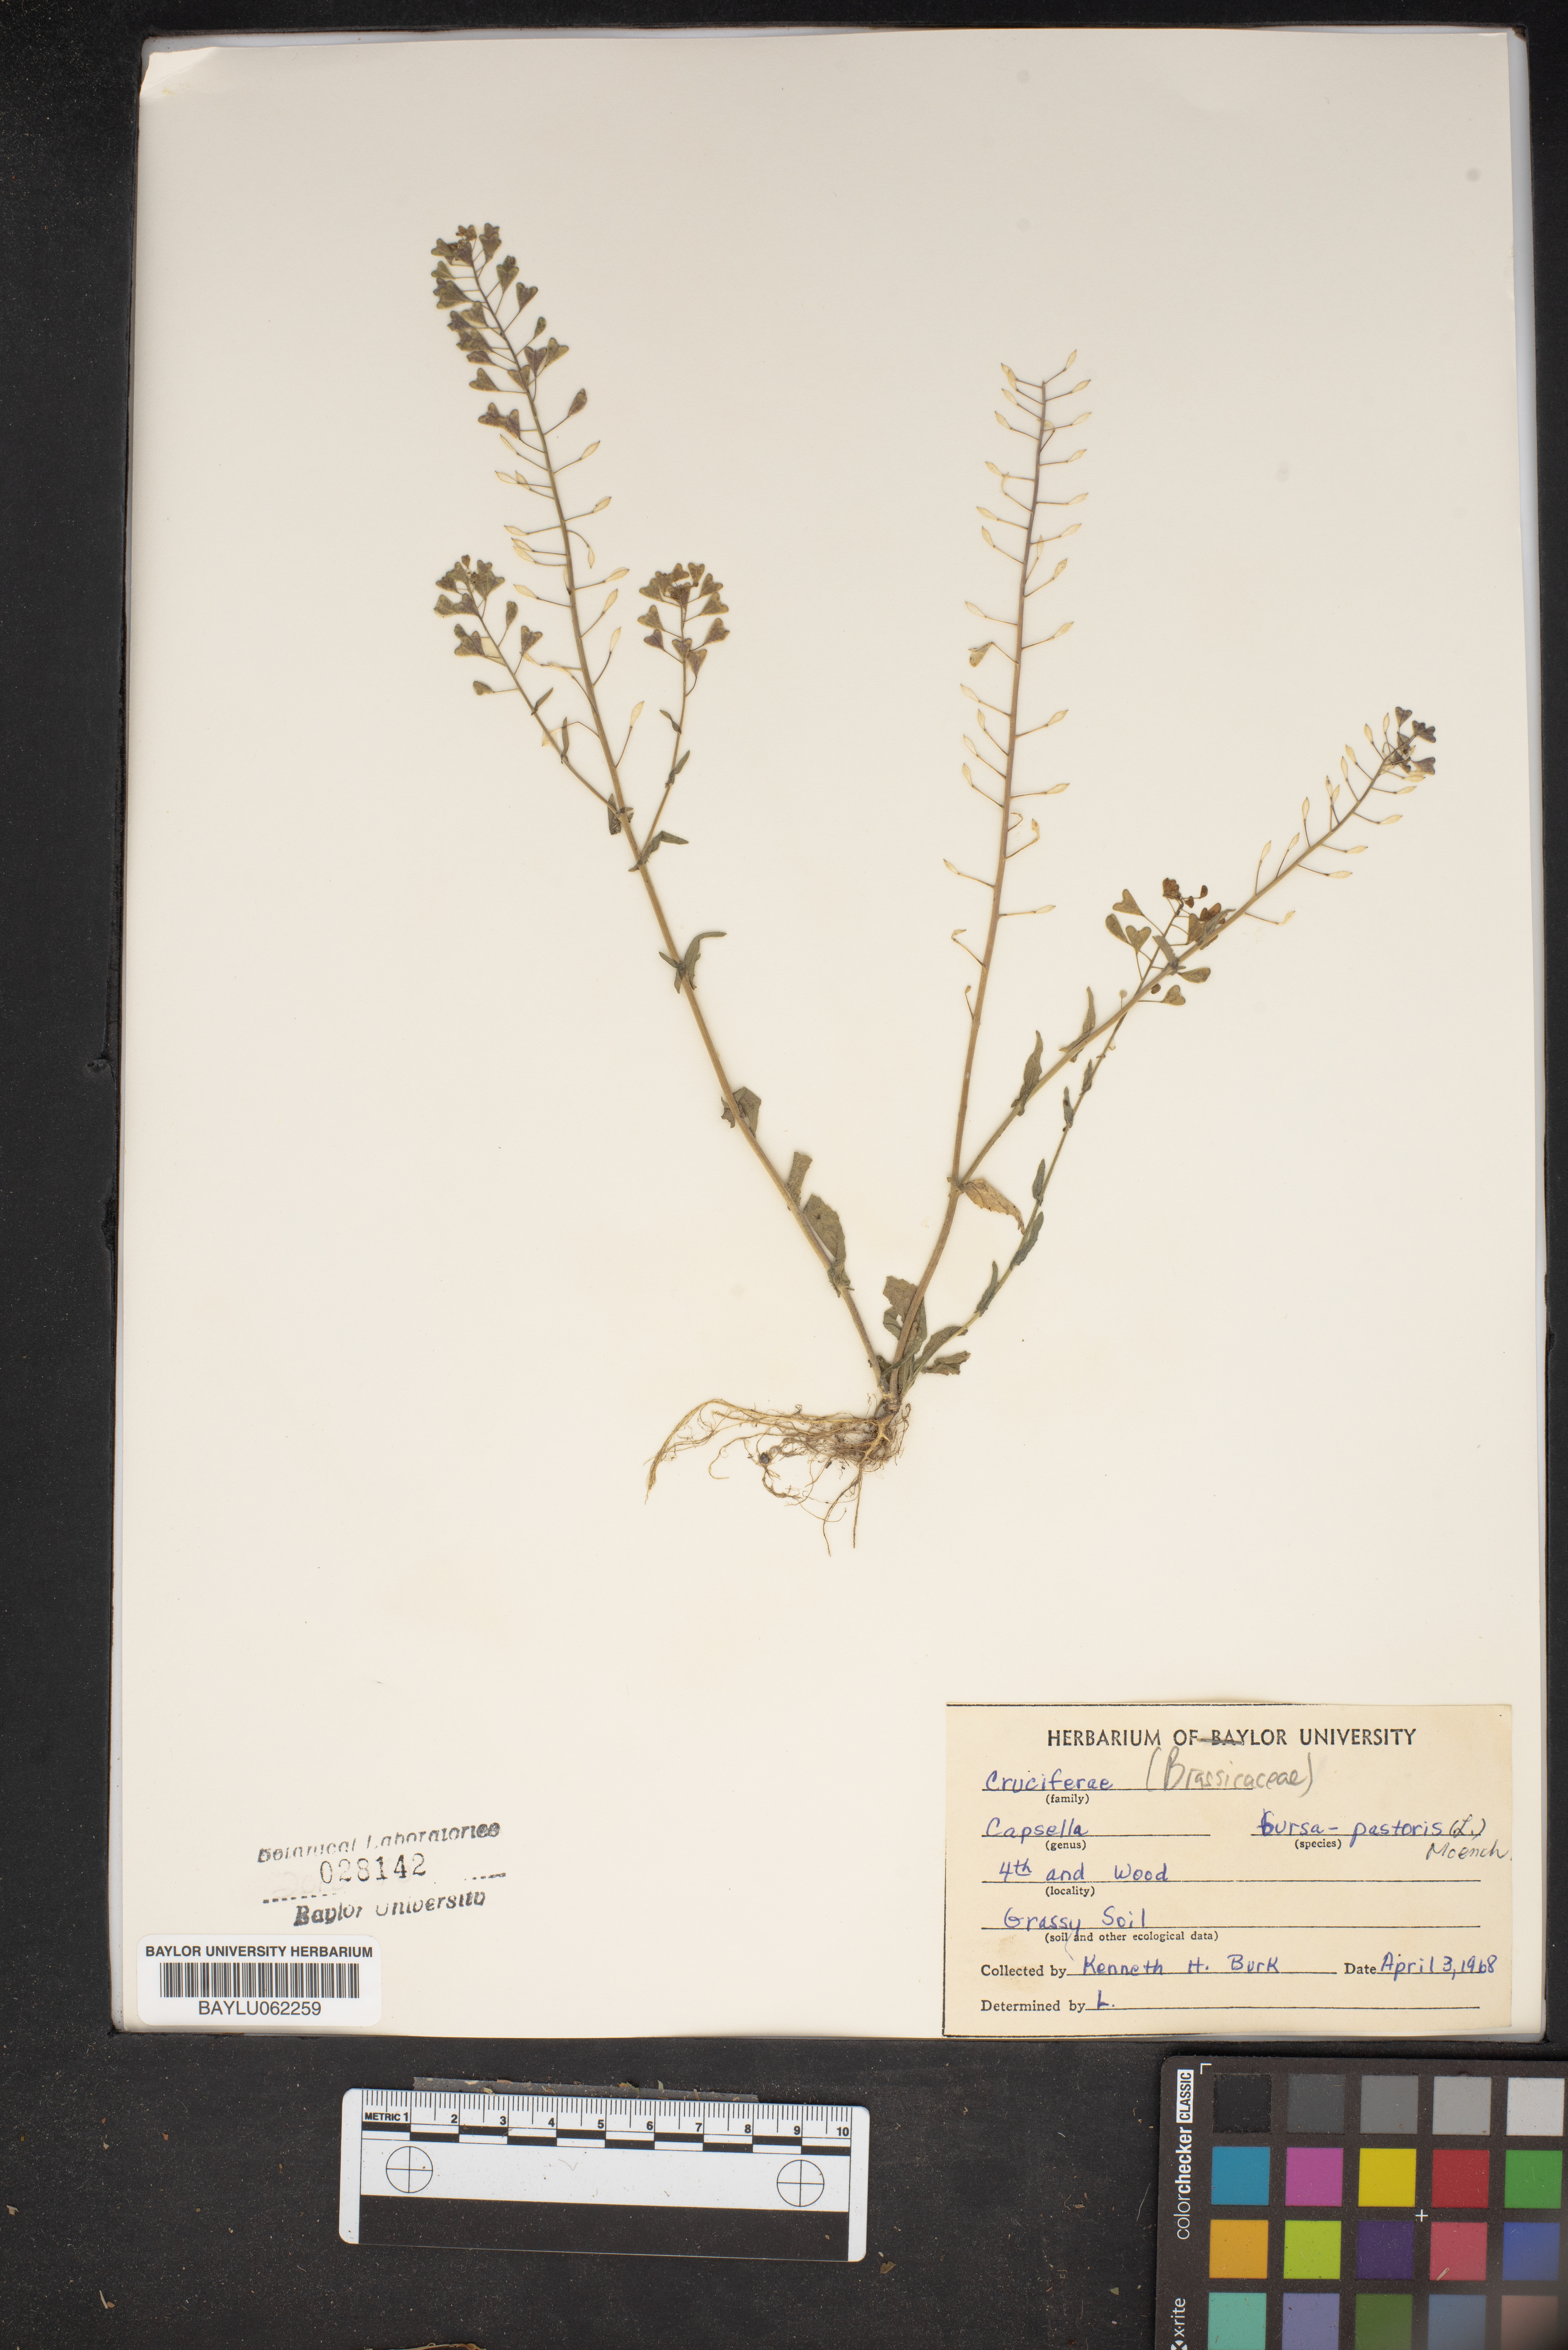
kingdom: Plantae
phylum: Tracheophyta
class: Magnoliopsida
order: Brassicales
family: Brassicaceae
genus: Capsella
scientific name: Capsella bursa-pastoris
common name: Shepherd's purse
